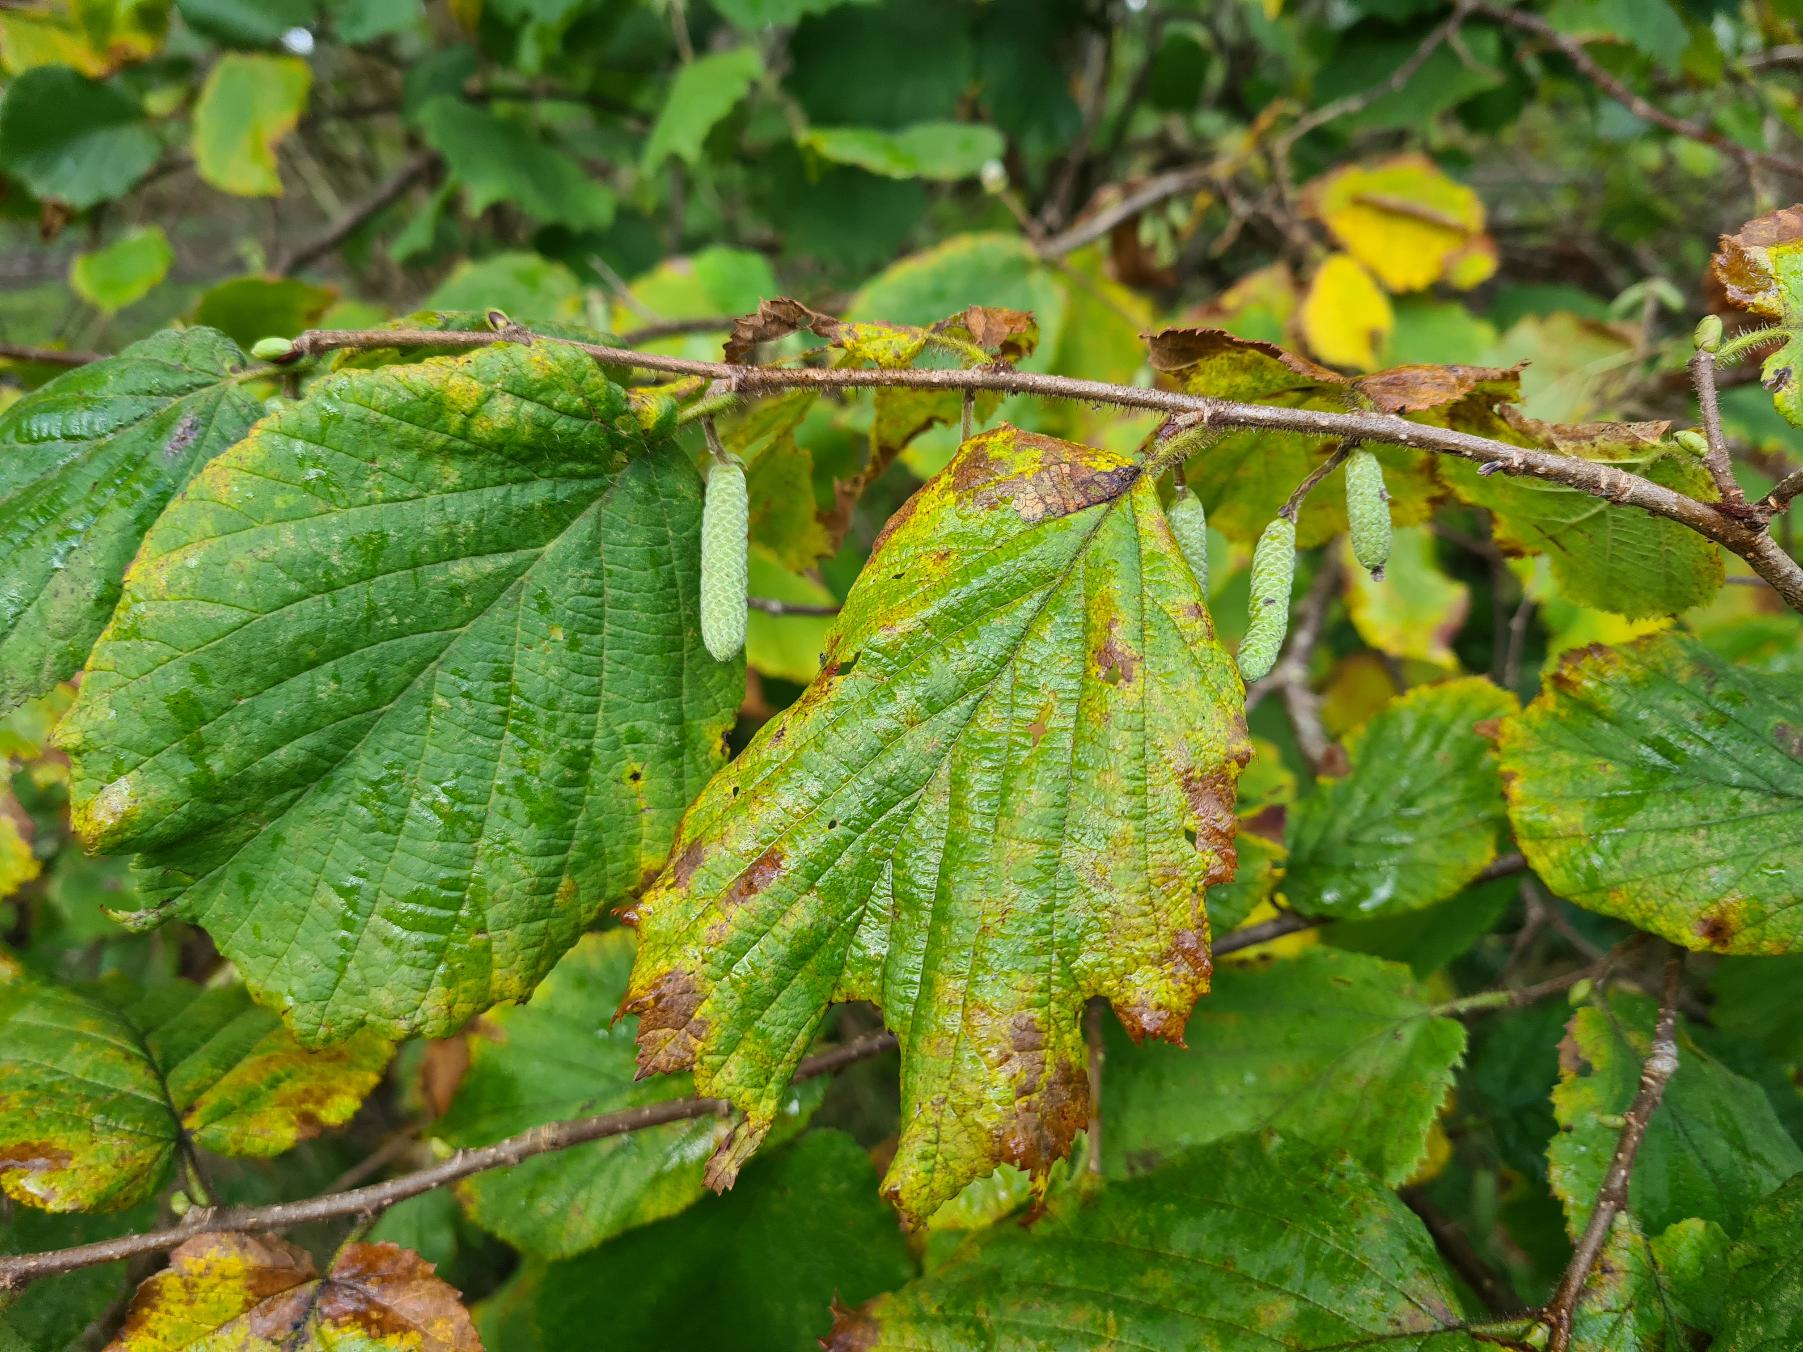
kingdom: Plantae
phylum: Tracheophyta
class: Magnoliopsida
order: Fagales
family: Betulaceae
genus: Corylus
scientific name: Corylus avellana
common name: Hassel
